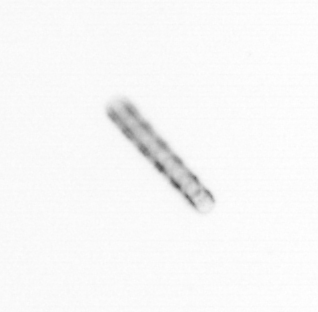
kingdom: Chromista
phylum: Ochrophyta
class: Bacillariophyceae
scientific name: Bacillariophyceae
